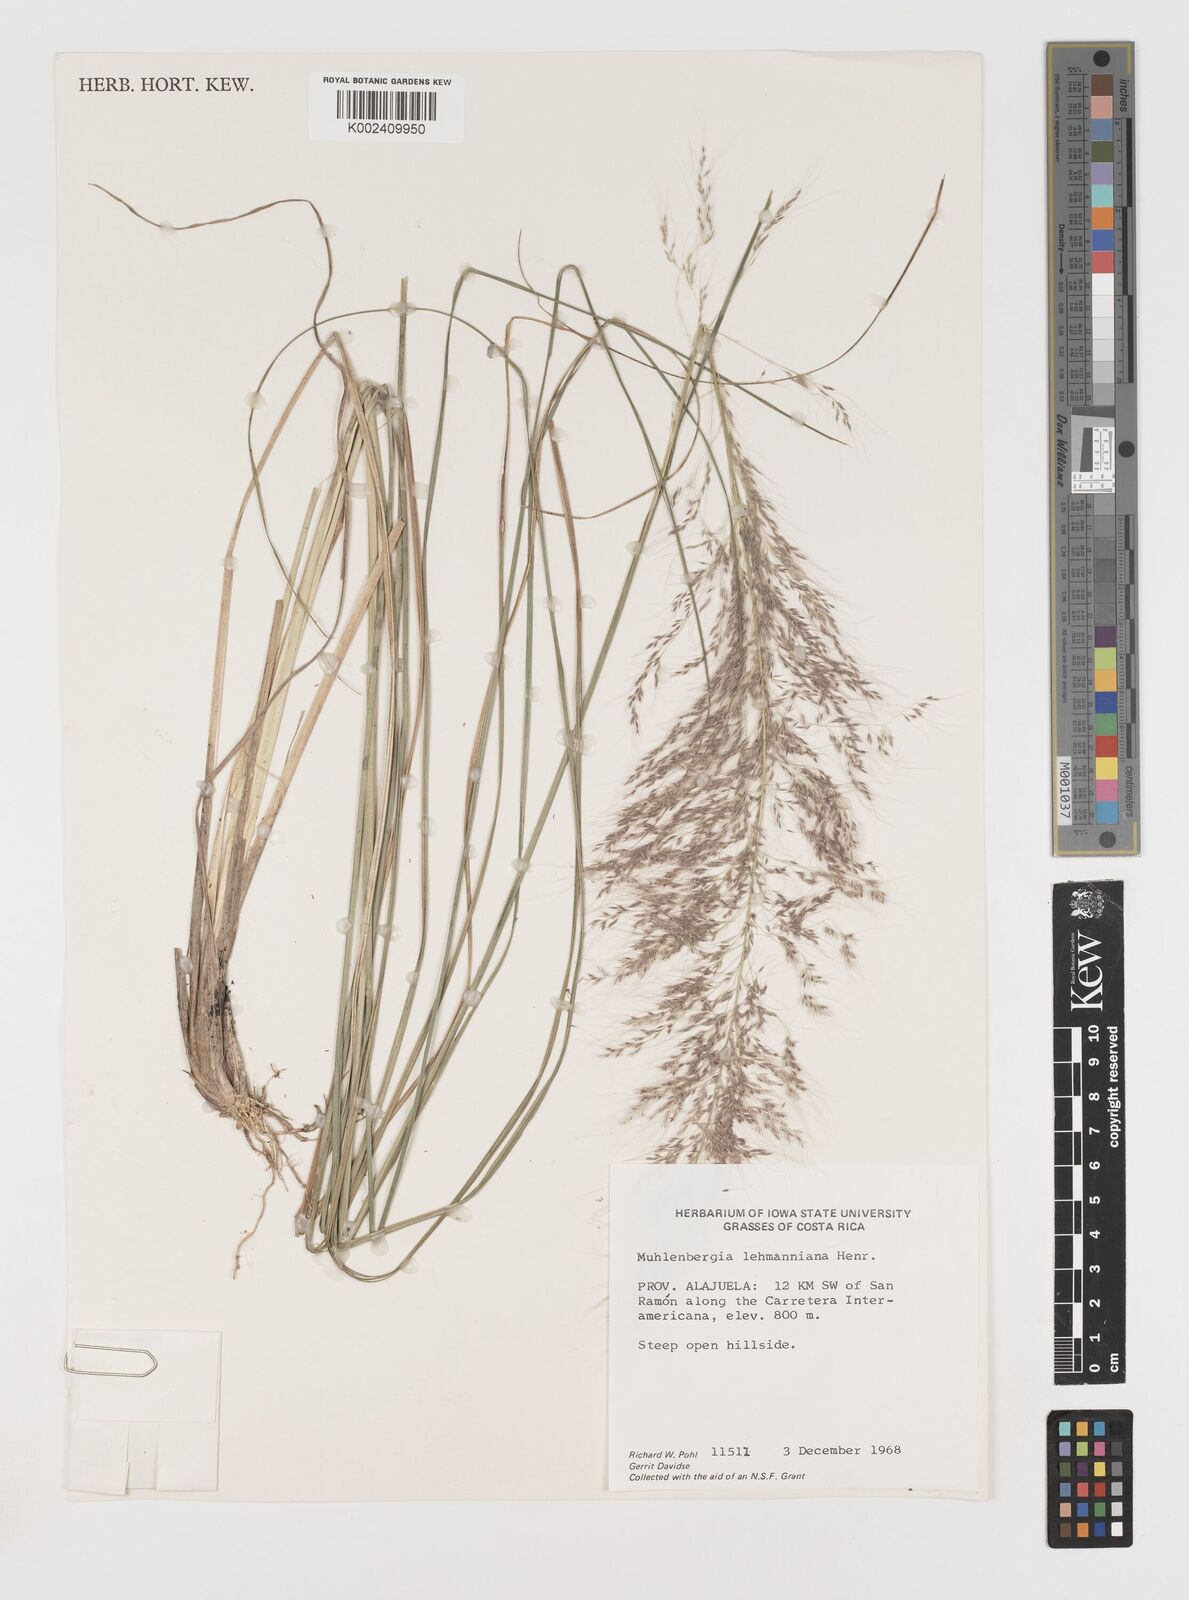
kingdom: Plantae
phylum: Tracheophyta
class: Liliopsida
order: Poales
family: Poaceae
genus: Muhlenbergia
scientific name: Muhlenbergia lehmanniana
